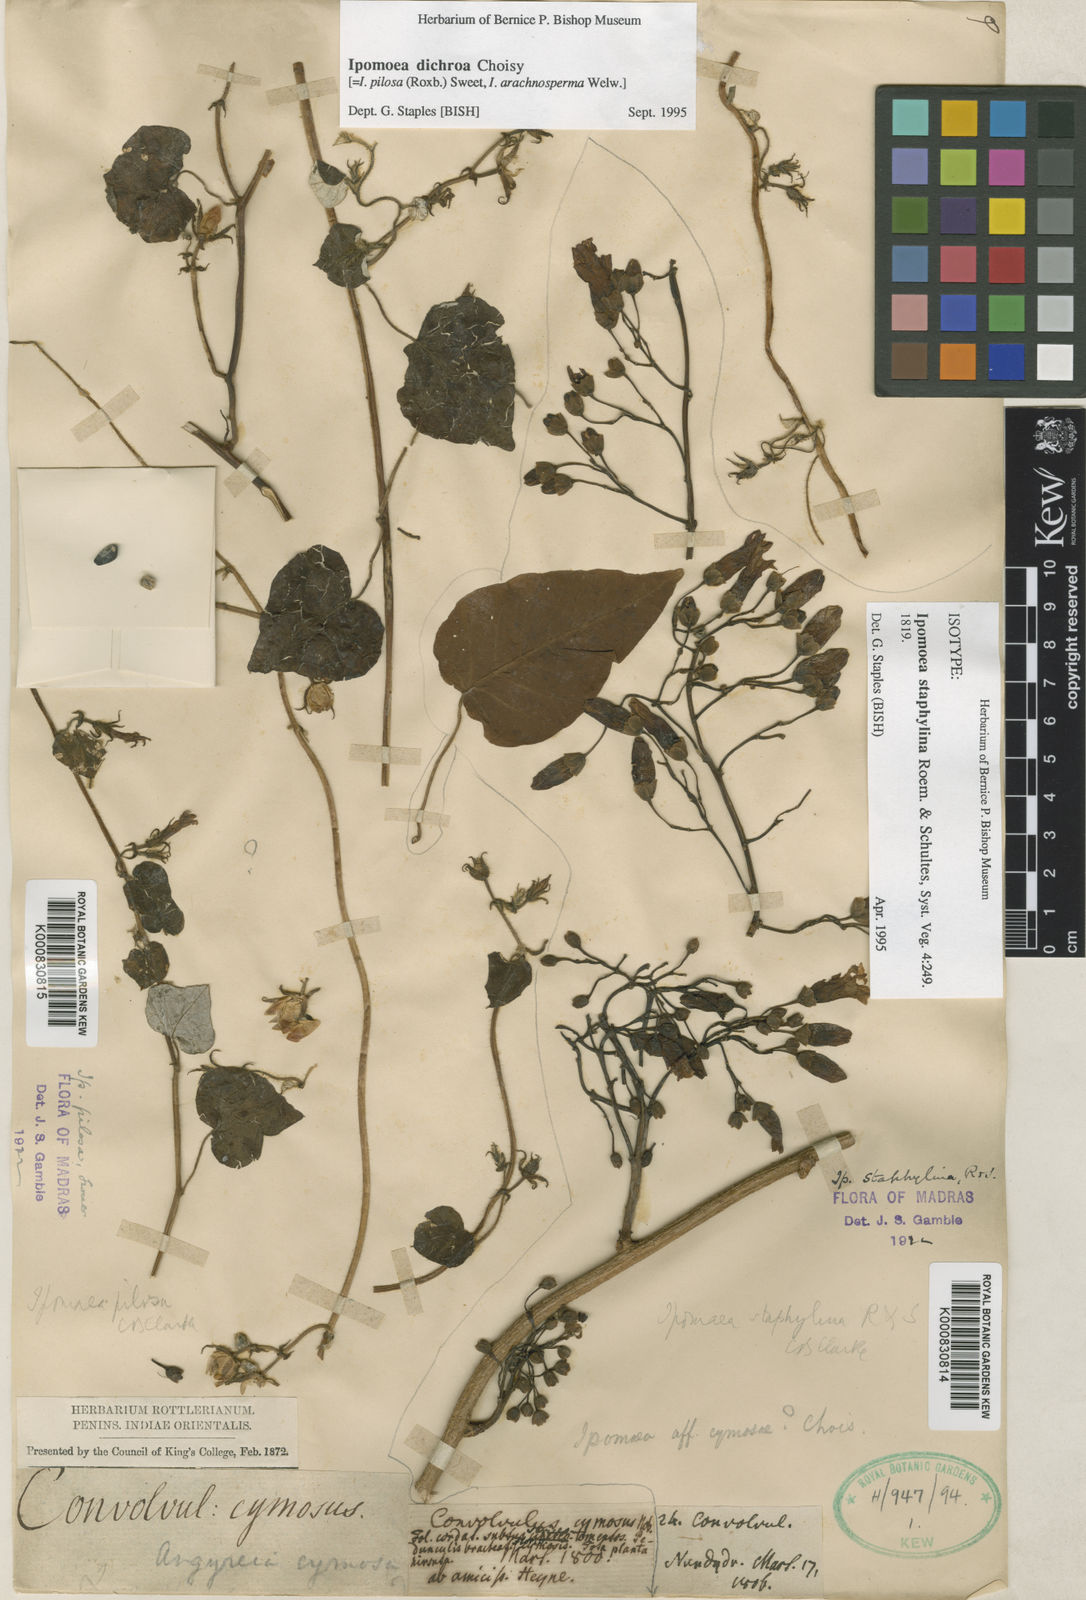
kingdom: Plantae
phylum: Tracheophyta
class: Magnoliopsida
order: Solanales
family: Convolvulaceae
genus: Ipomoea
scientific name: Ipomoea staphylina
